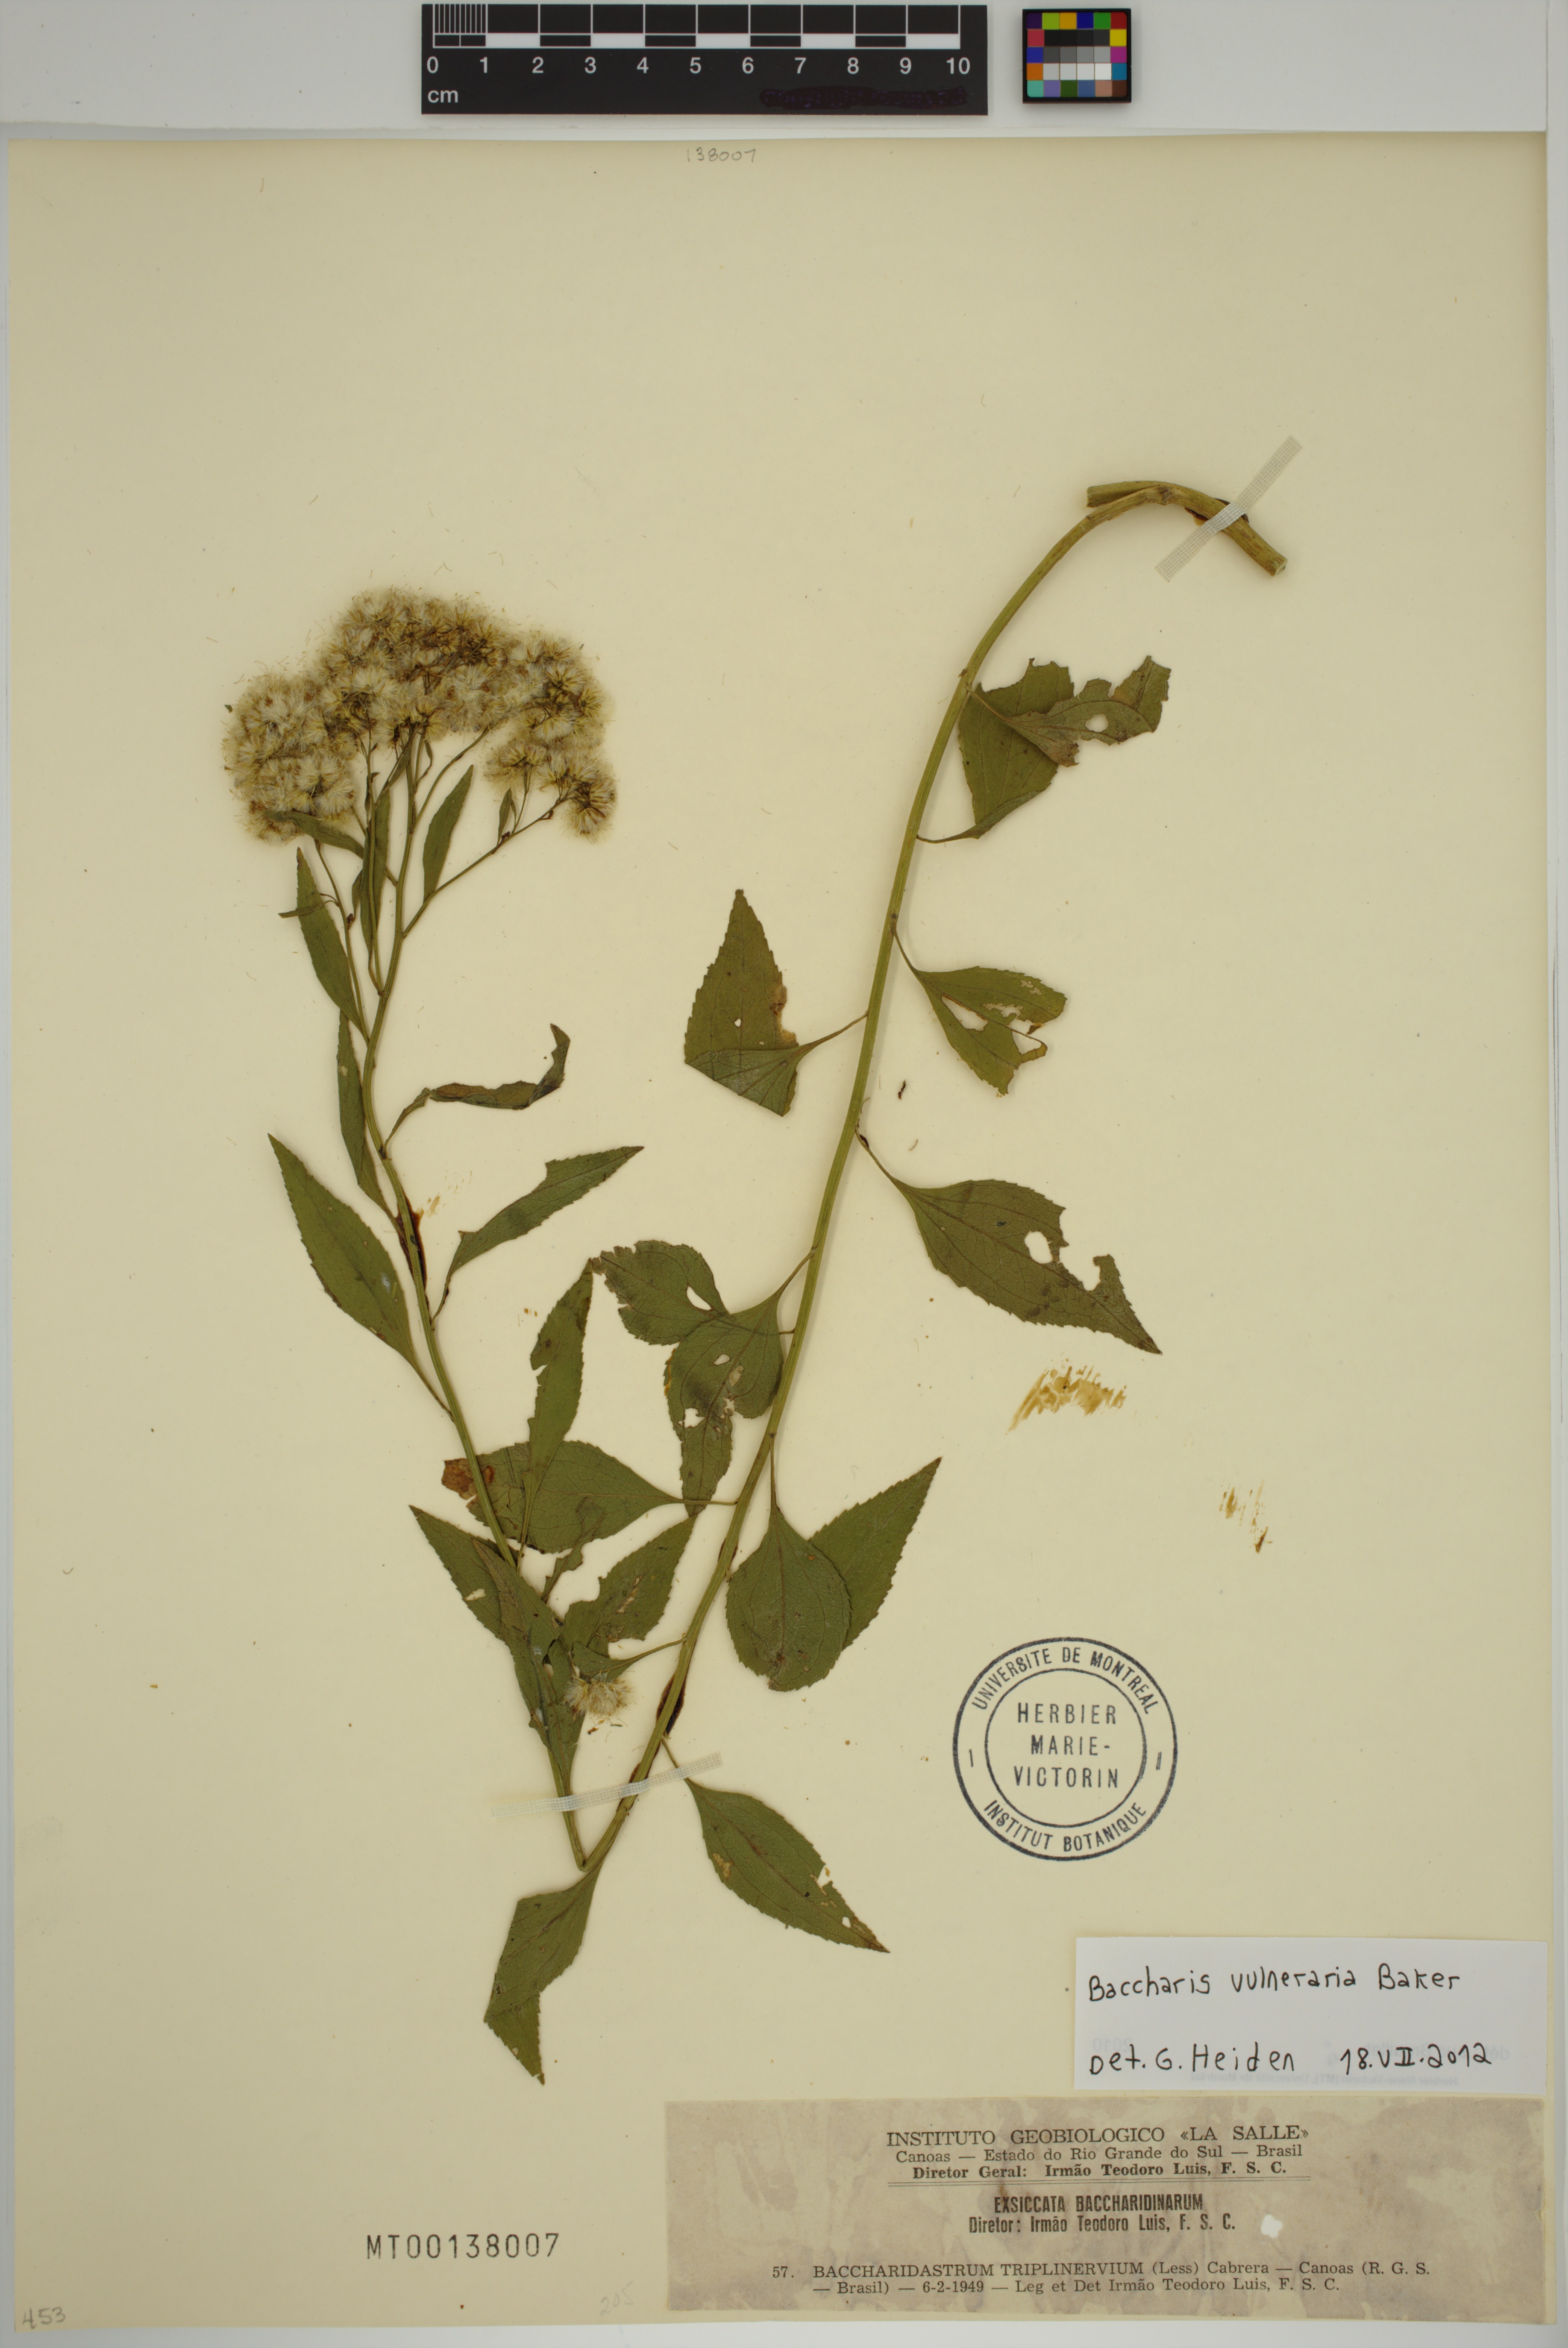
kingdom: Plantae
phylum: Tracheophyta
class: Magnoliopsida
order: Asterales
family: Asteraceae
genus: Archibaccharis
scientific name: Archibaccharis vulneraria
